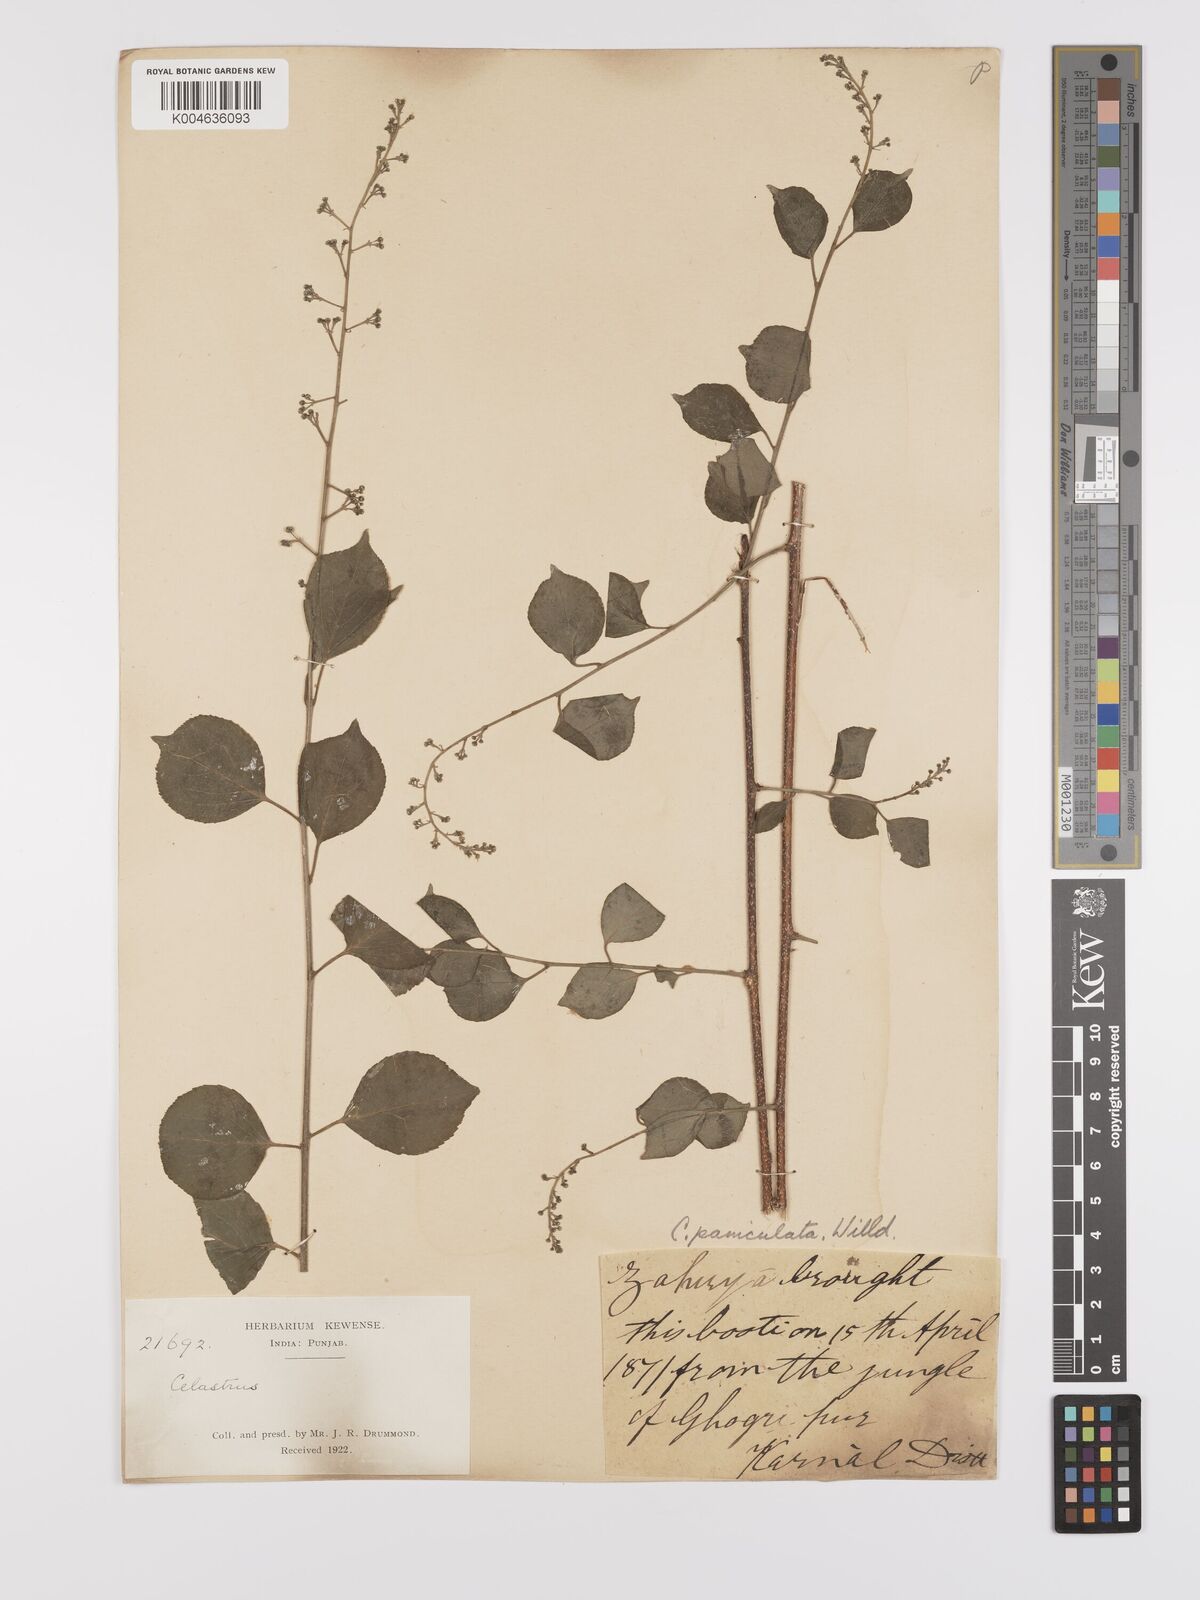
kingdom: Plantae
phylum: Tracheophyta
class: Magnoliopsida
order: Celastrales
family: Celastraceae
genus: Celastrus
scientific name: Celastrus paniculatus
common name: Oriental bittersweet; staff vine
